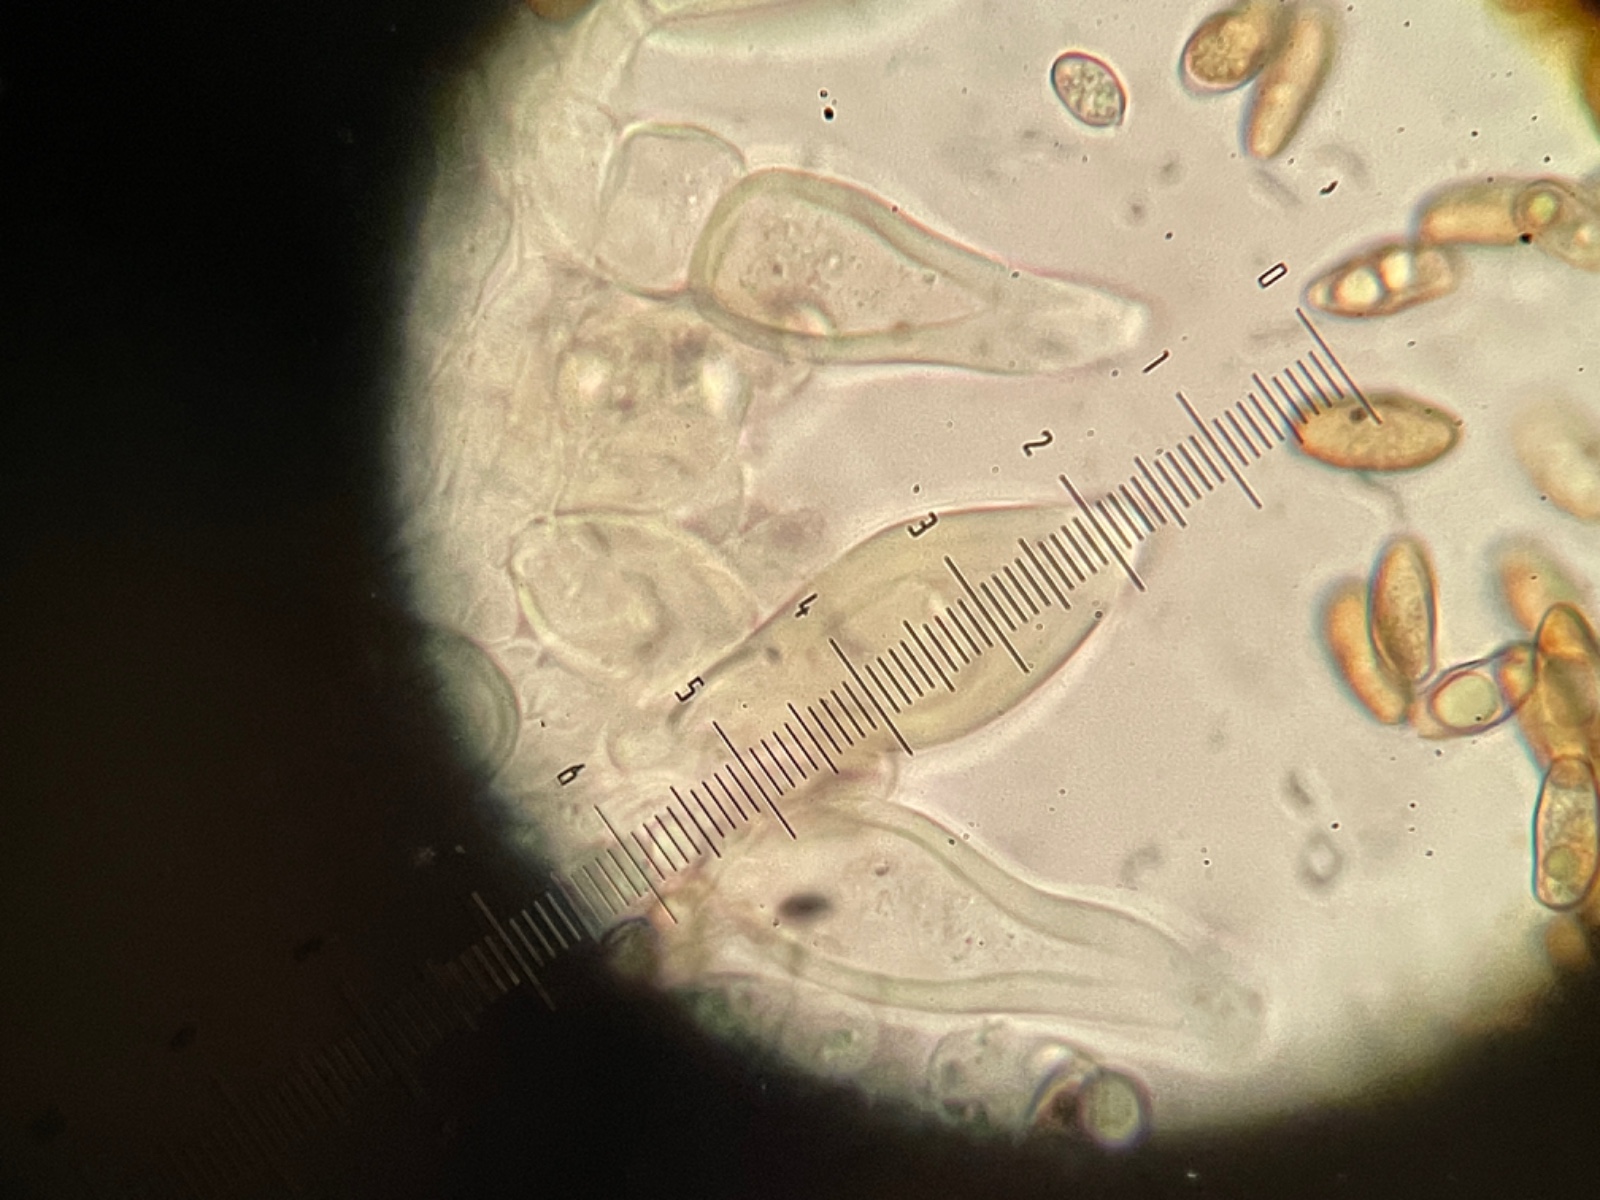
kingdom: Fungi
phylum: Basidiomycota
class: Agaricomycetes
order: Agaricales
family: Inocybaceae
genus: Inocybe
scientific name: Inocybe lacera
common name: laset trævlhat
